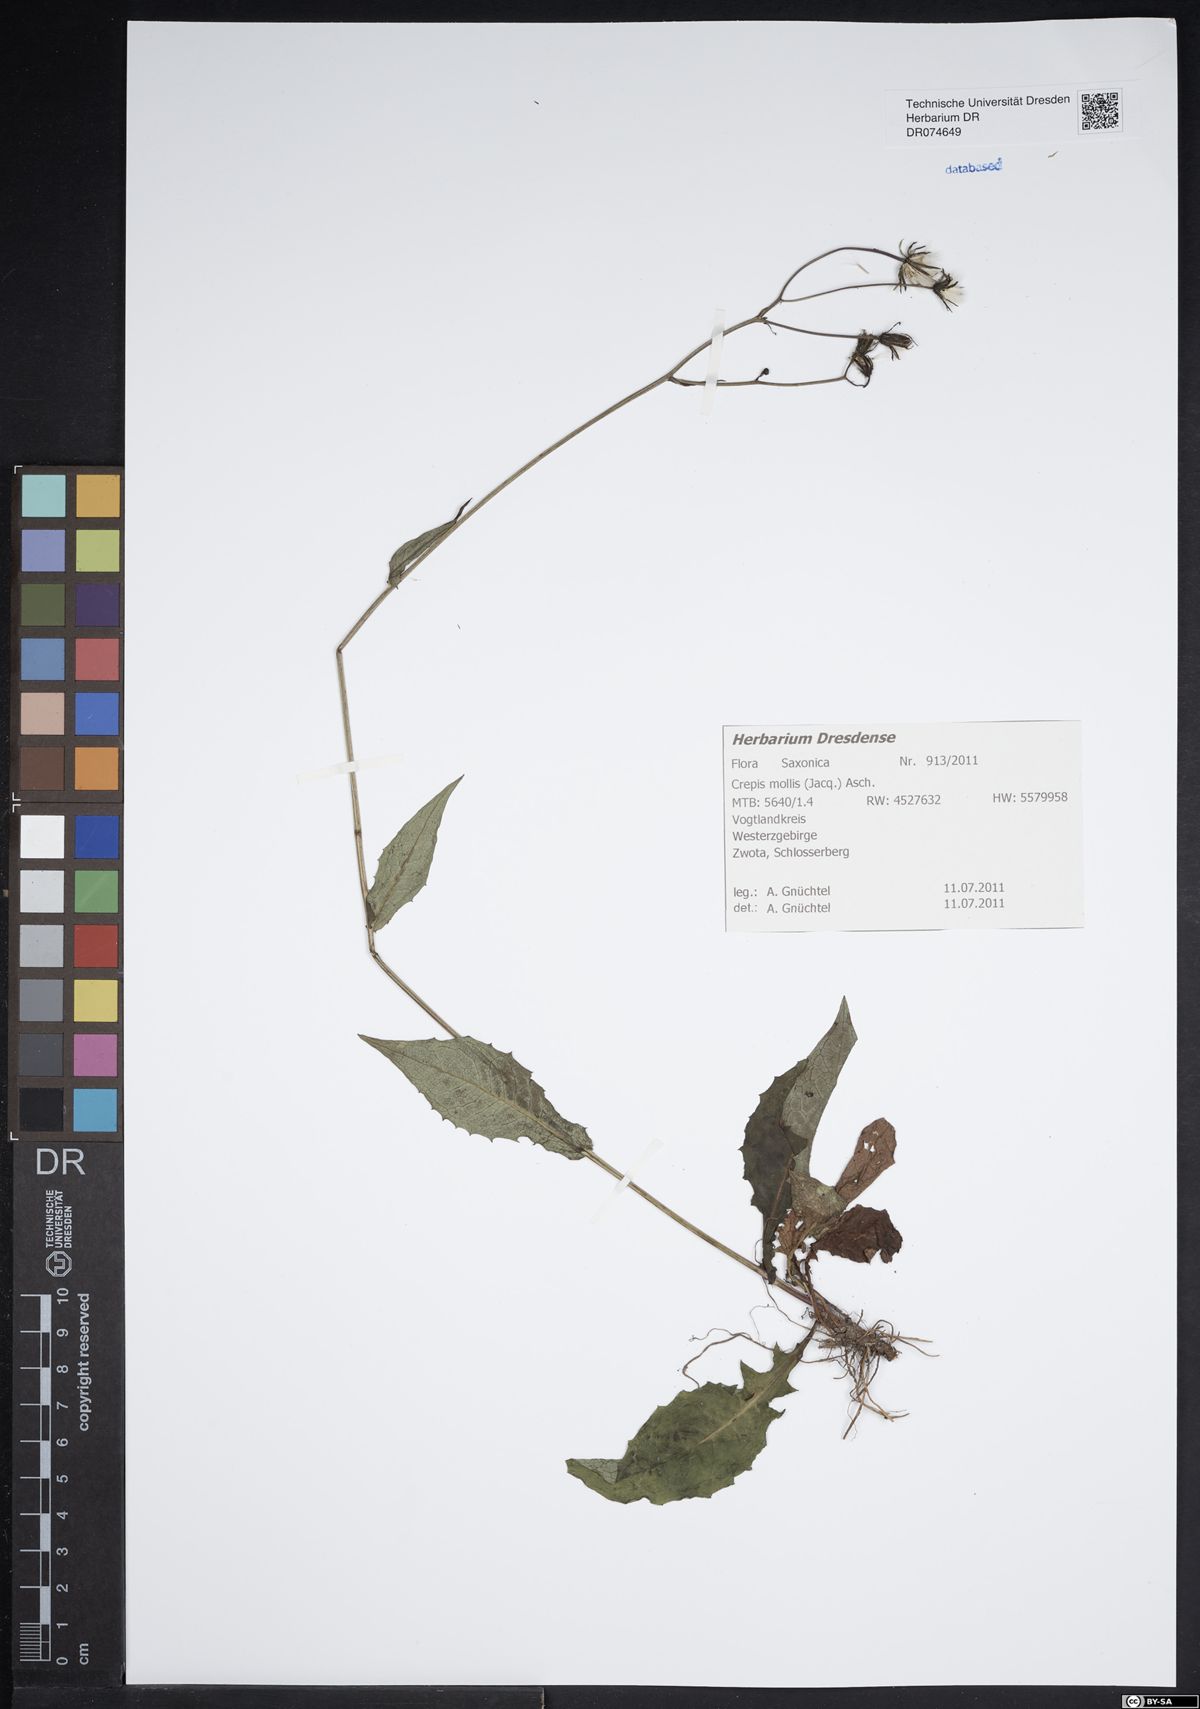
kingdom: Plantae
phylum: Tracheophyta
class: Magnoliopsida
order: Asterales
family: Asteraceae
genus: Crepis
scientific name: Crepis biennis
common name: Rough hawk's-beard
